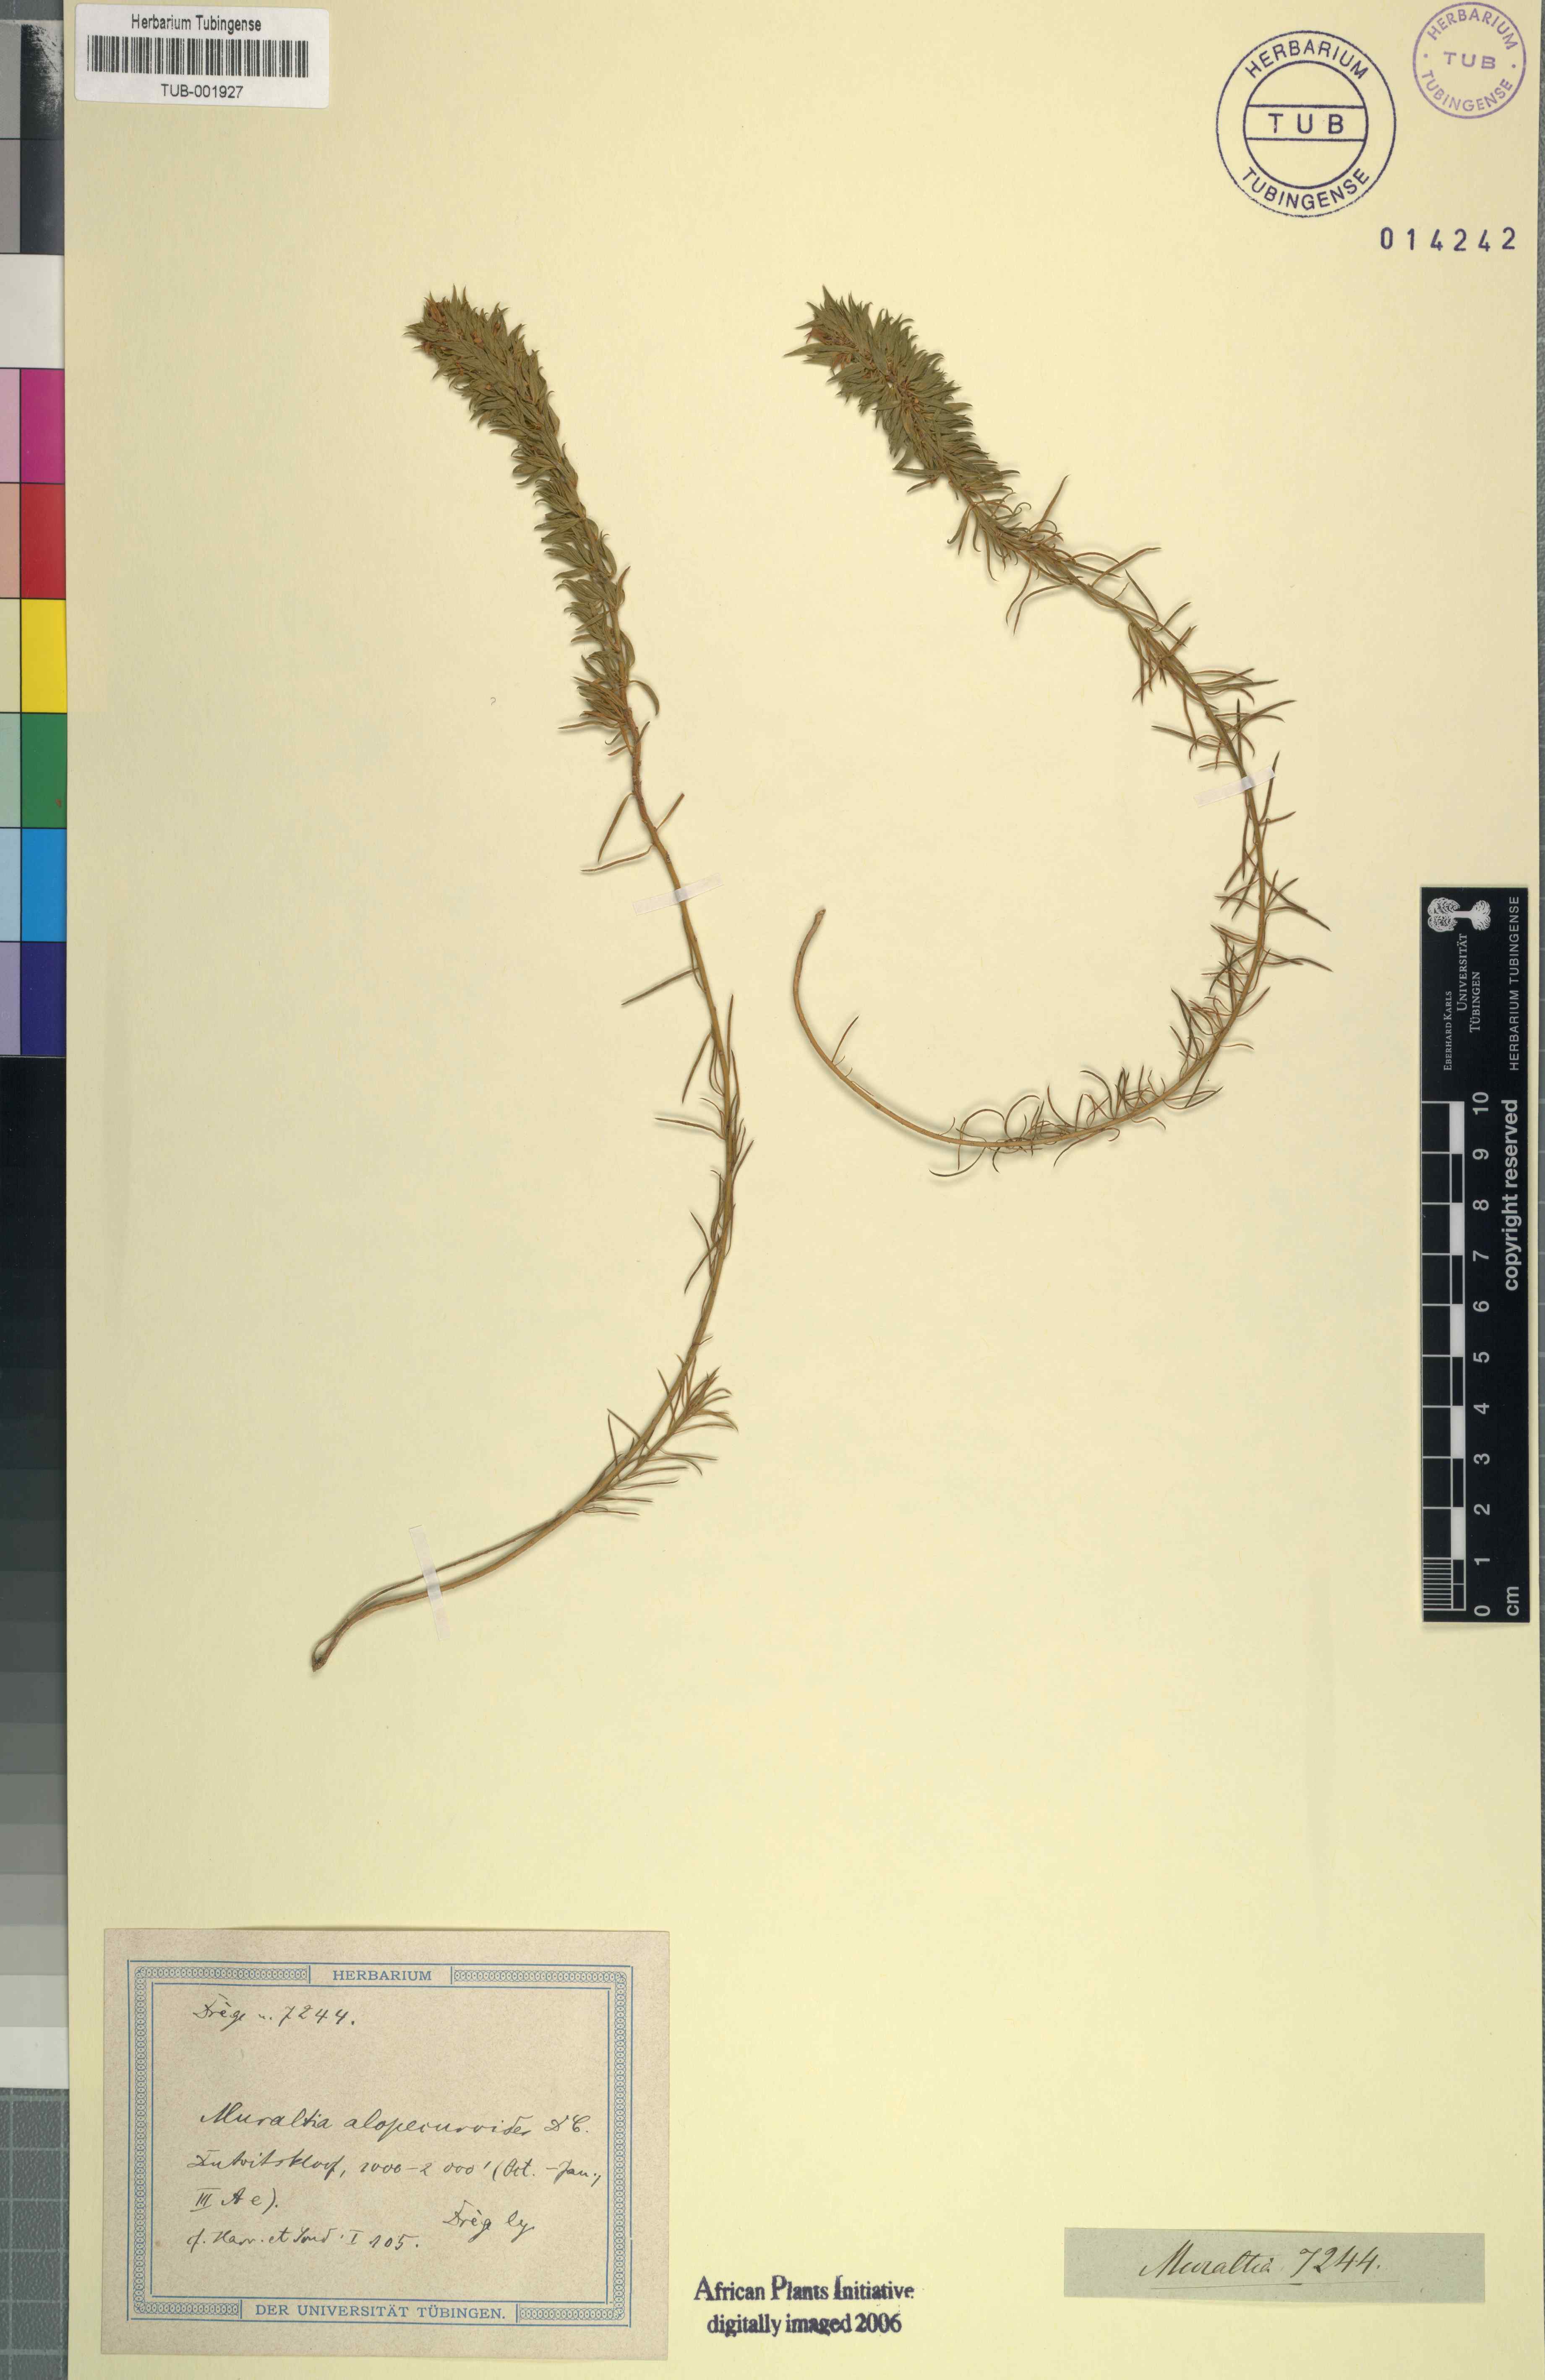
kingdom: Plantae
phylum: Tracheophyta
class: Magnoliopsida
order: Fabales
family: Polygalaceae
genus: Muraltia
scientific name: Muraltia alopecuroides
